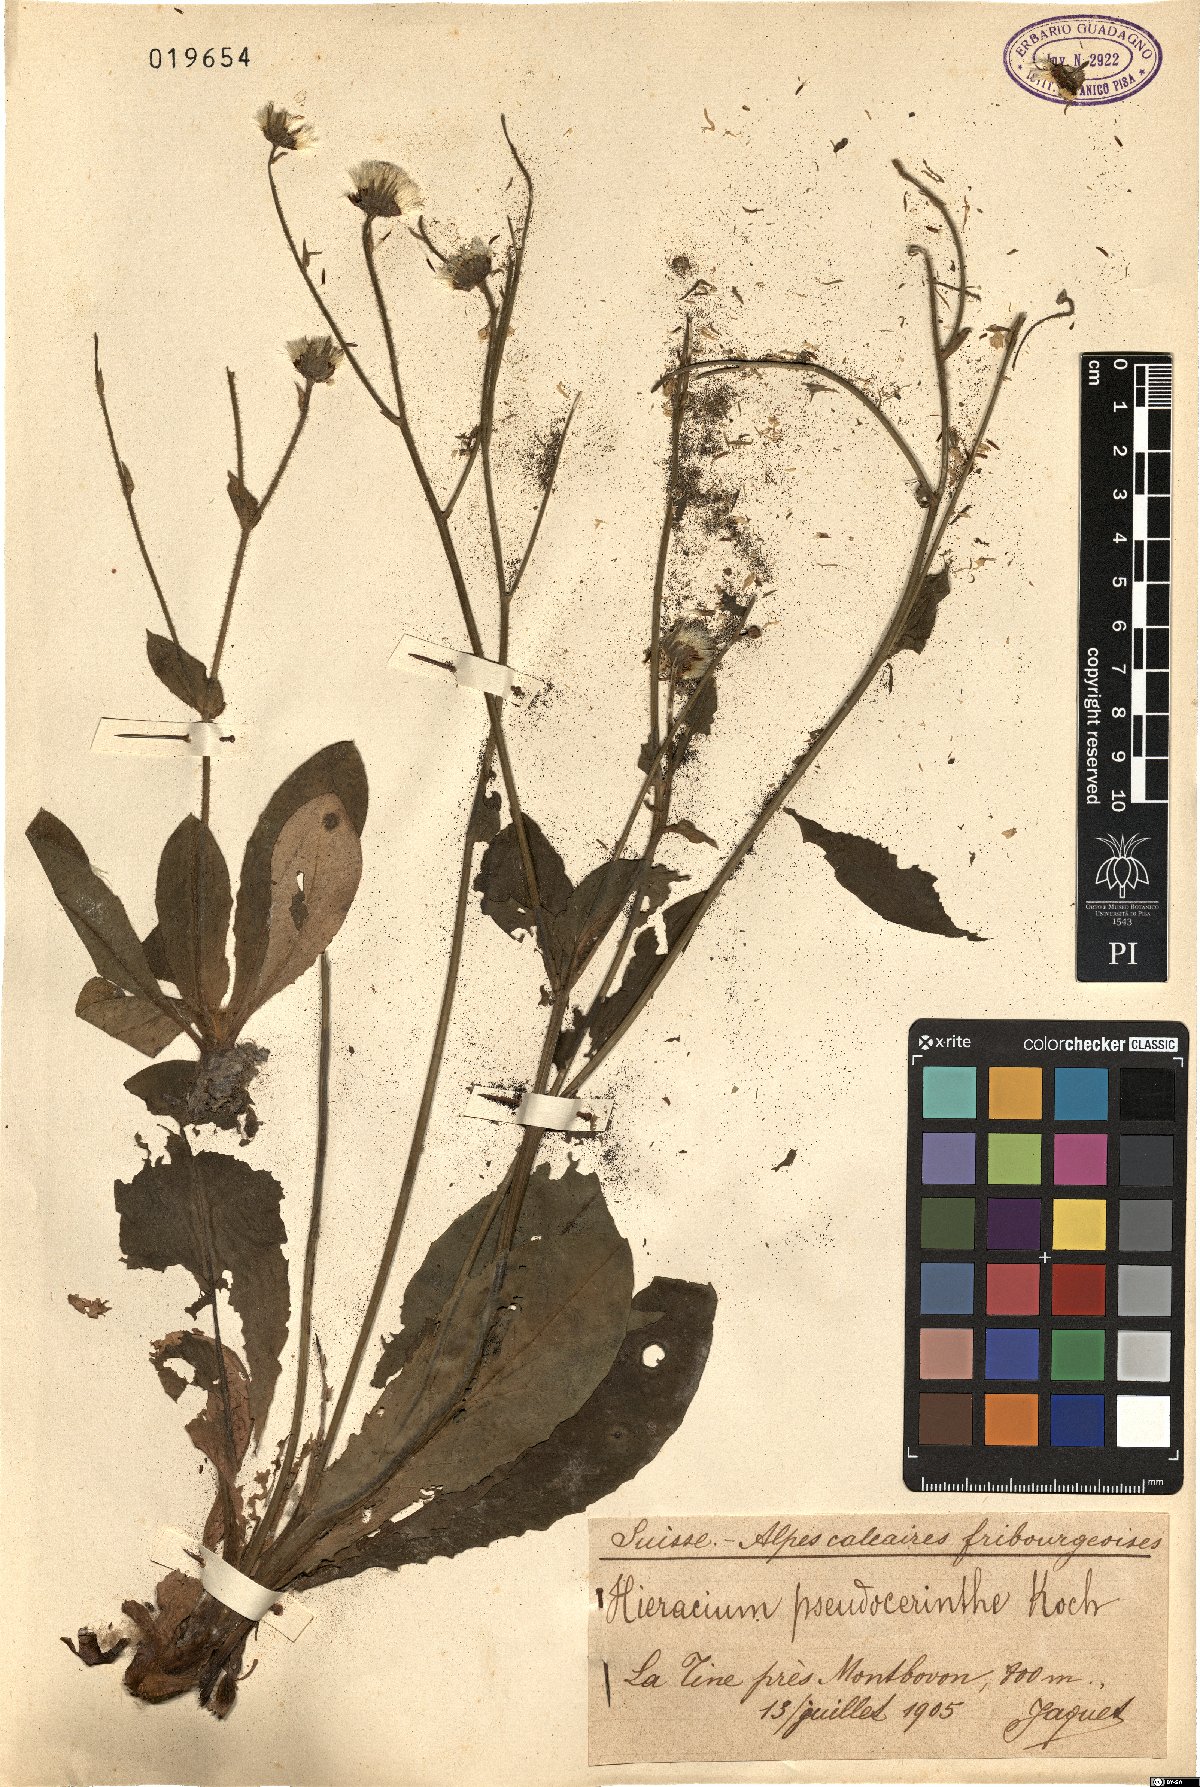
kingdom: Plantae
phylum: Tracheophyta
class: Magnoliopsida
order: Asterales
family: Asteraceae
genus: Hieracium
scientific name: Hieracium pseudocerinthe
